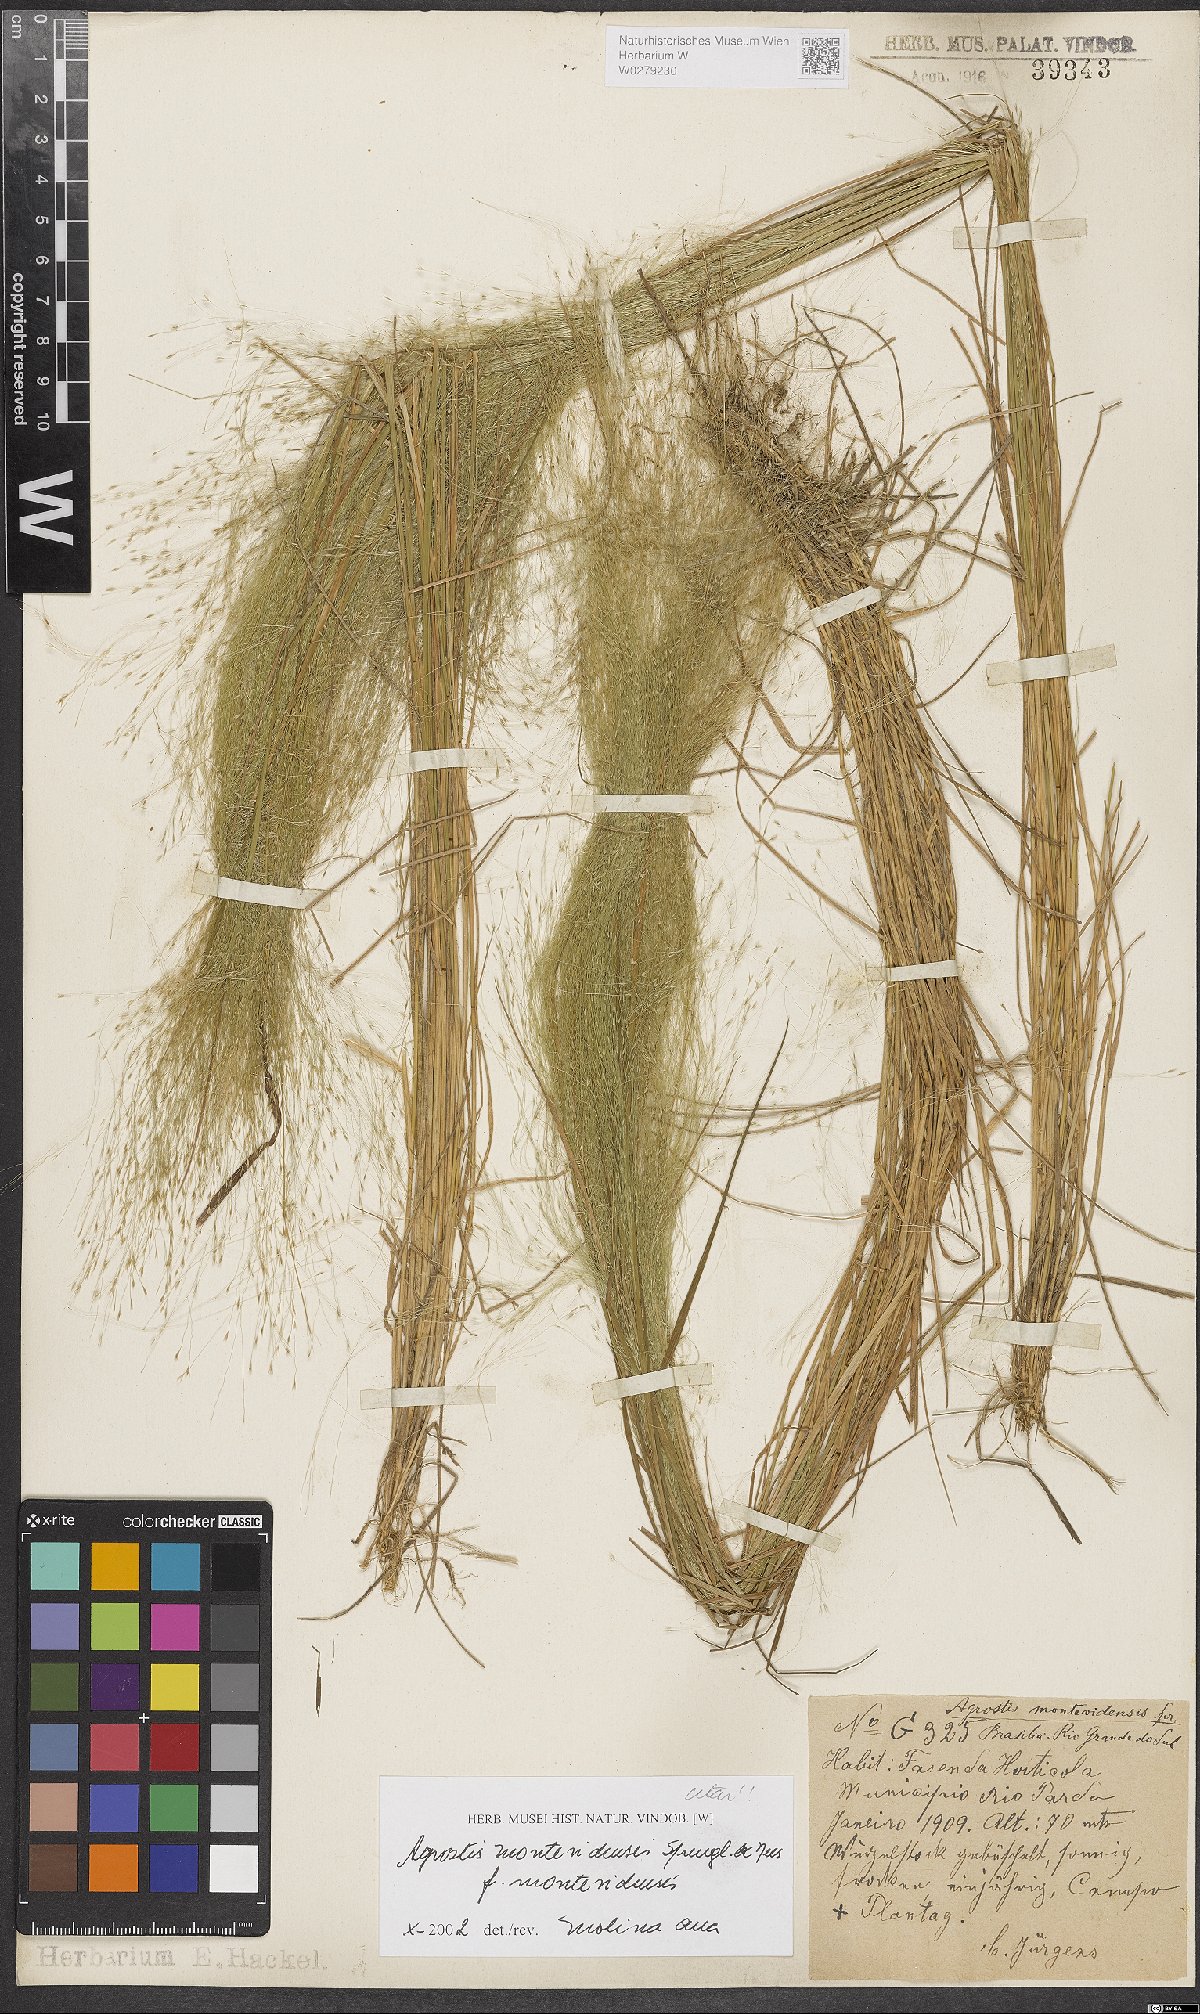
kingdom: Plantae
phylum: Tracheophyta
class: Liliopsida
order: Poales
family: Poaceae
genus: Agrostis
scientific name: Agrostis montevidensis
